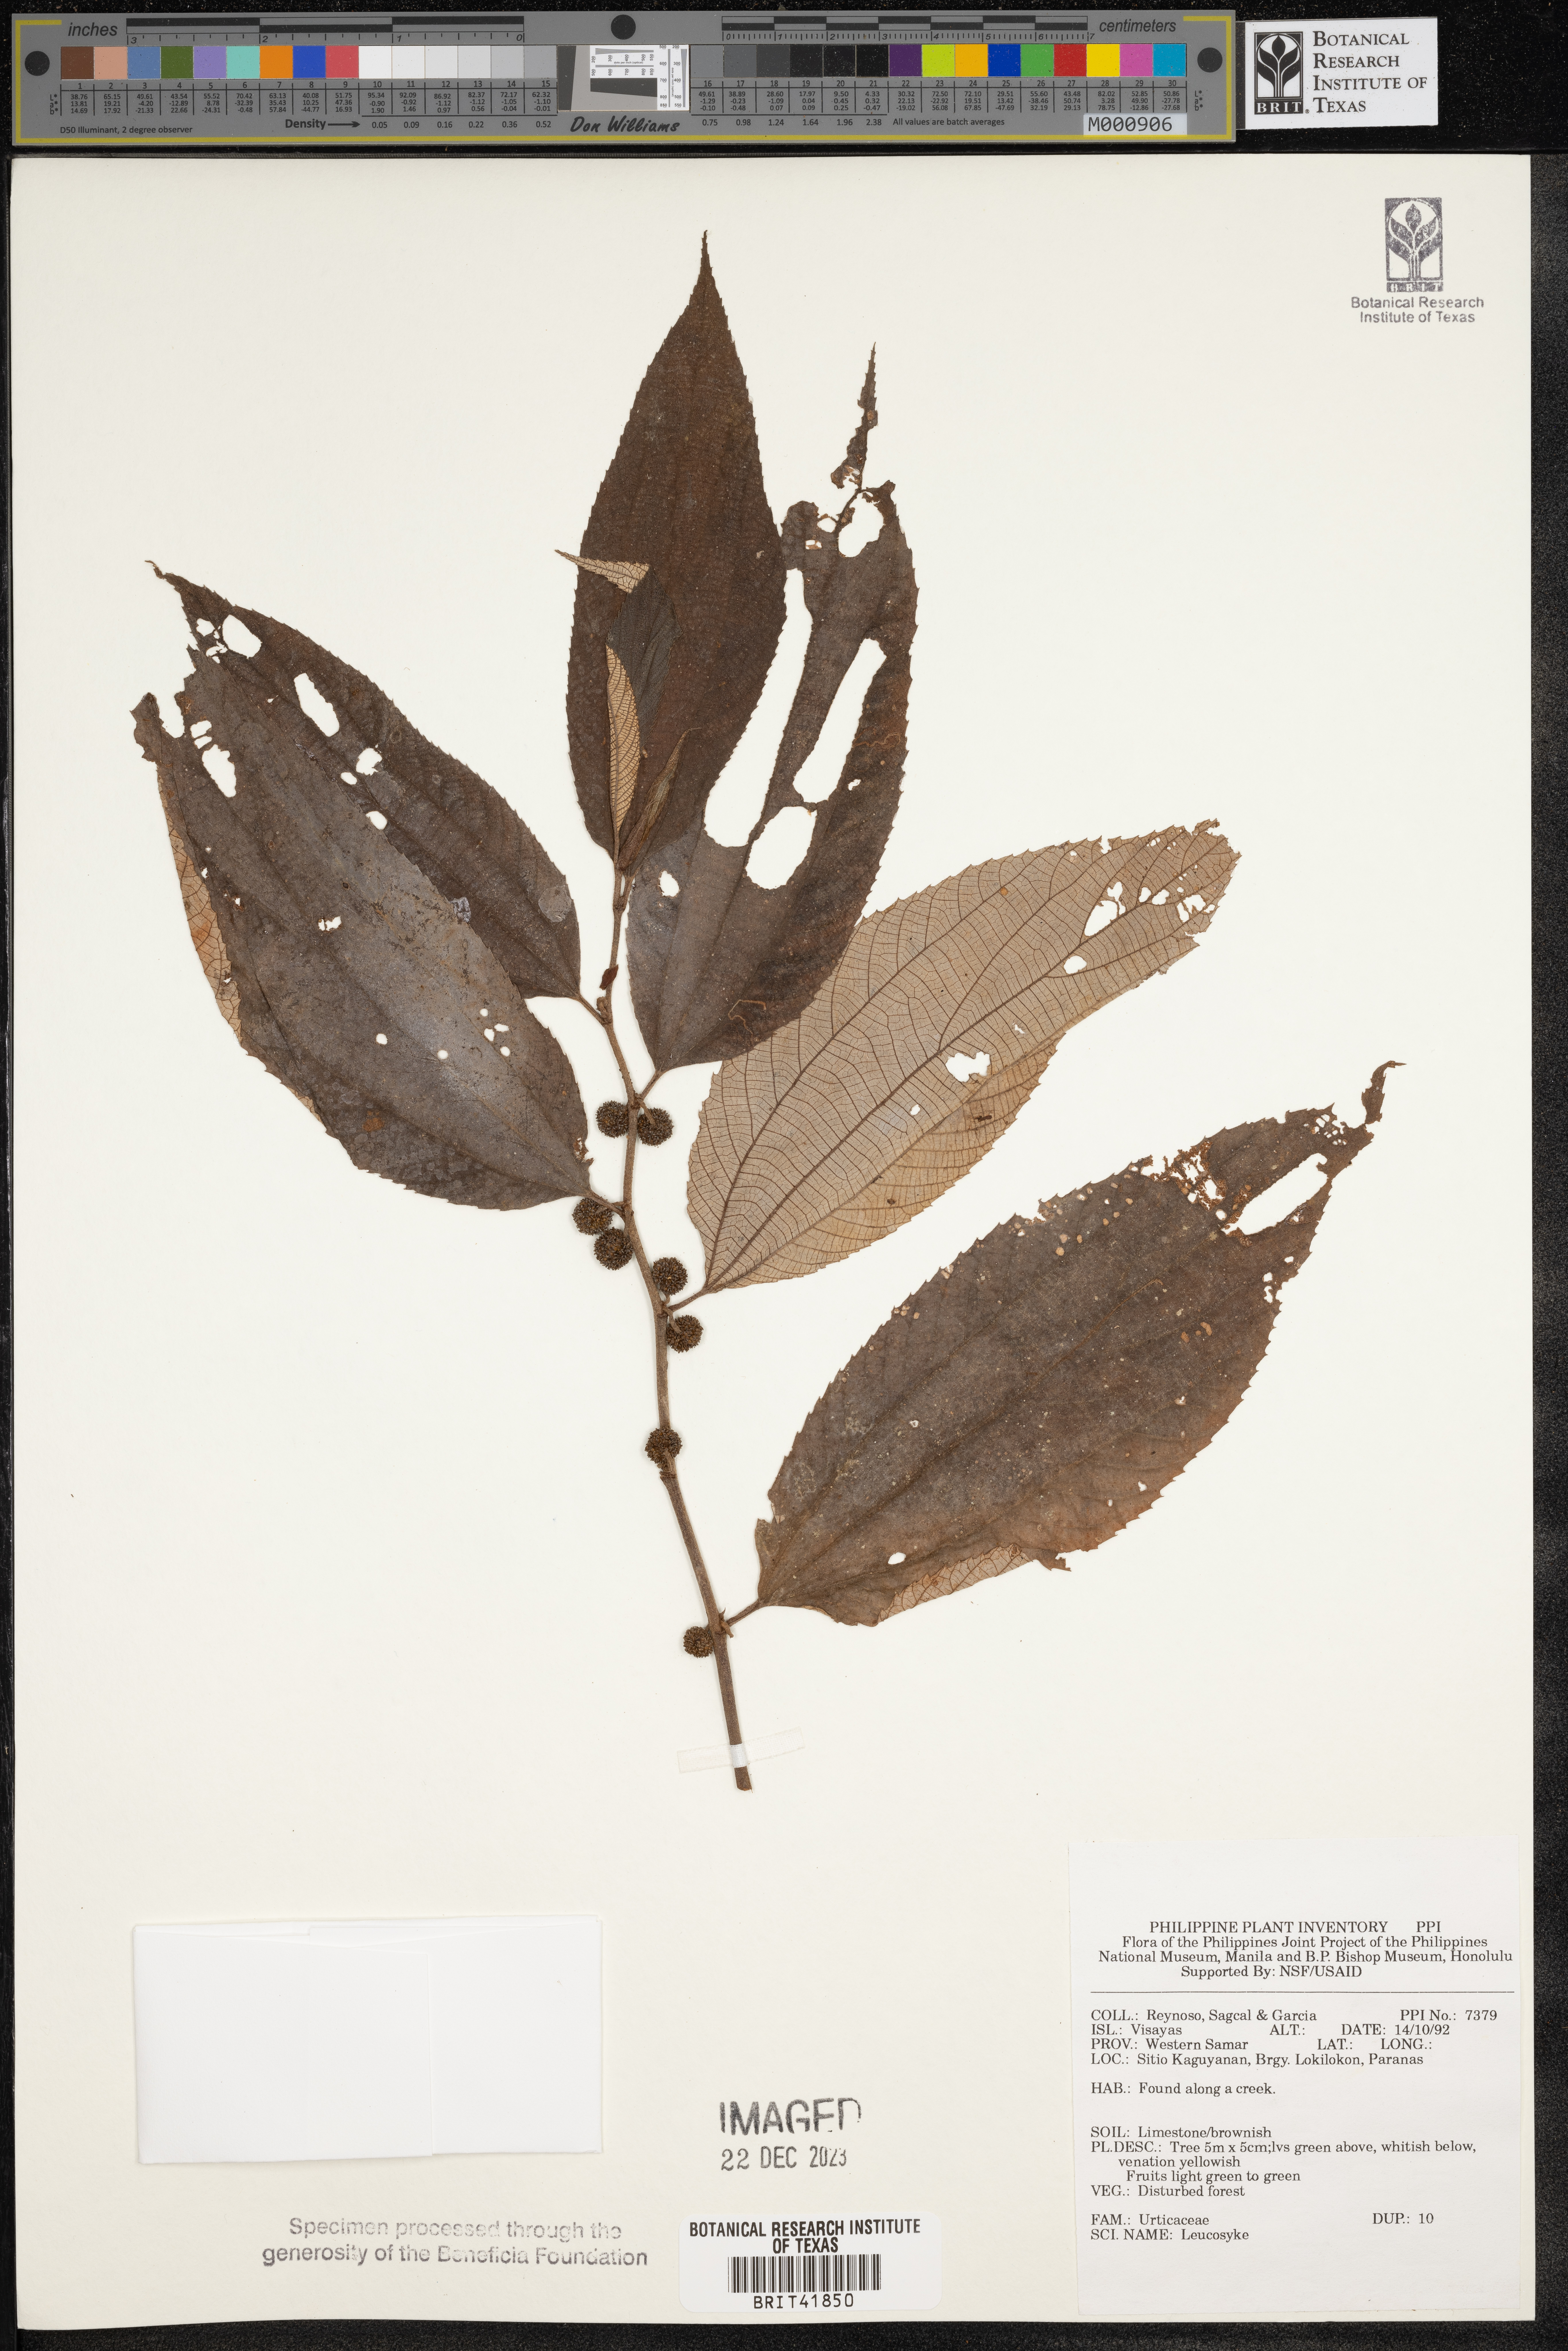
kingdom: Plantae
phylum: Tracheophyta
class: Magnoliopsida
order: Rosales
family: Urticaceae
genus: Leucosyke
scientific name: Leucosyke
